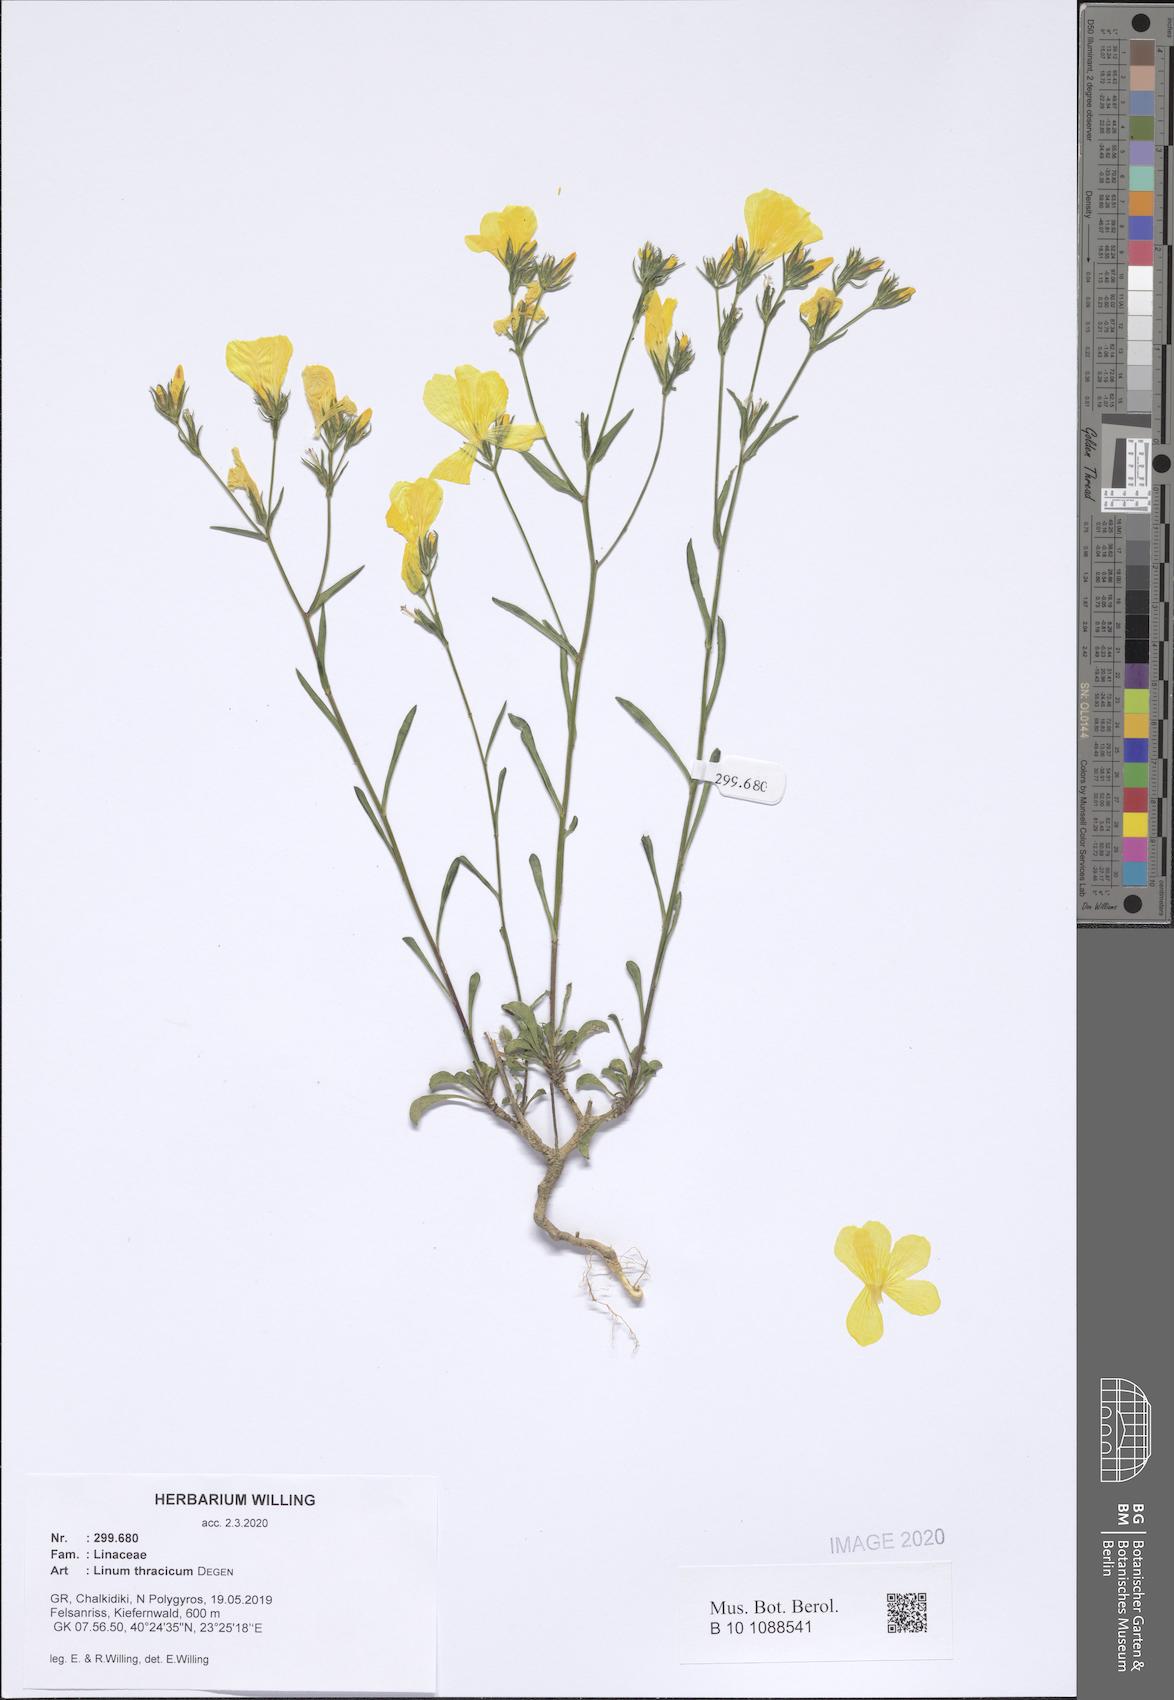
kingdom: Plantae
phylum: Tracheophyta
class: Magnoliopsida
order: Malpighiales
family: Linaceae
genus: Linum
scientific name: Linum thracicum
